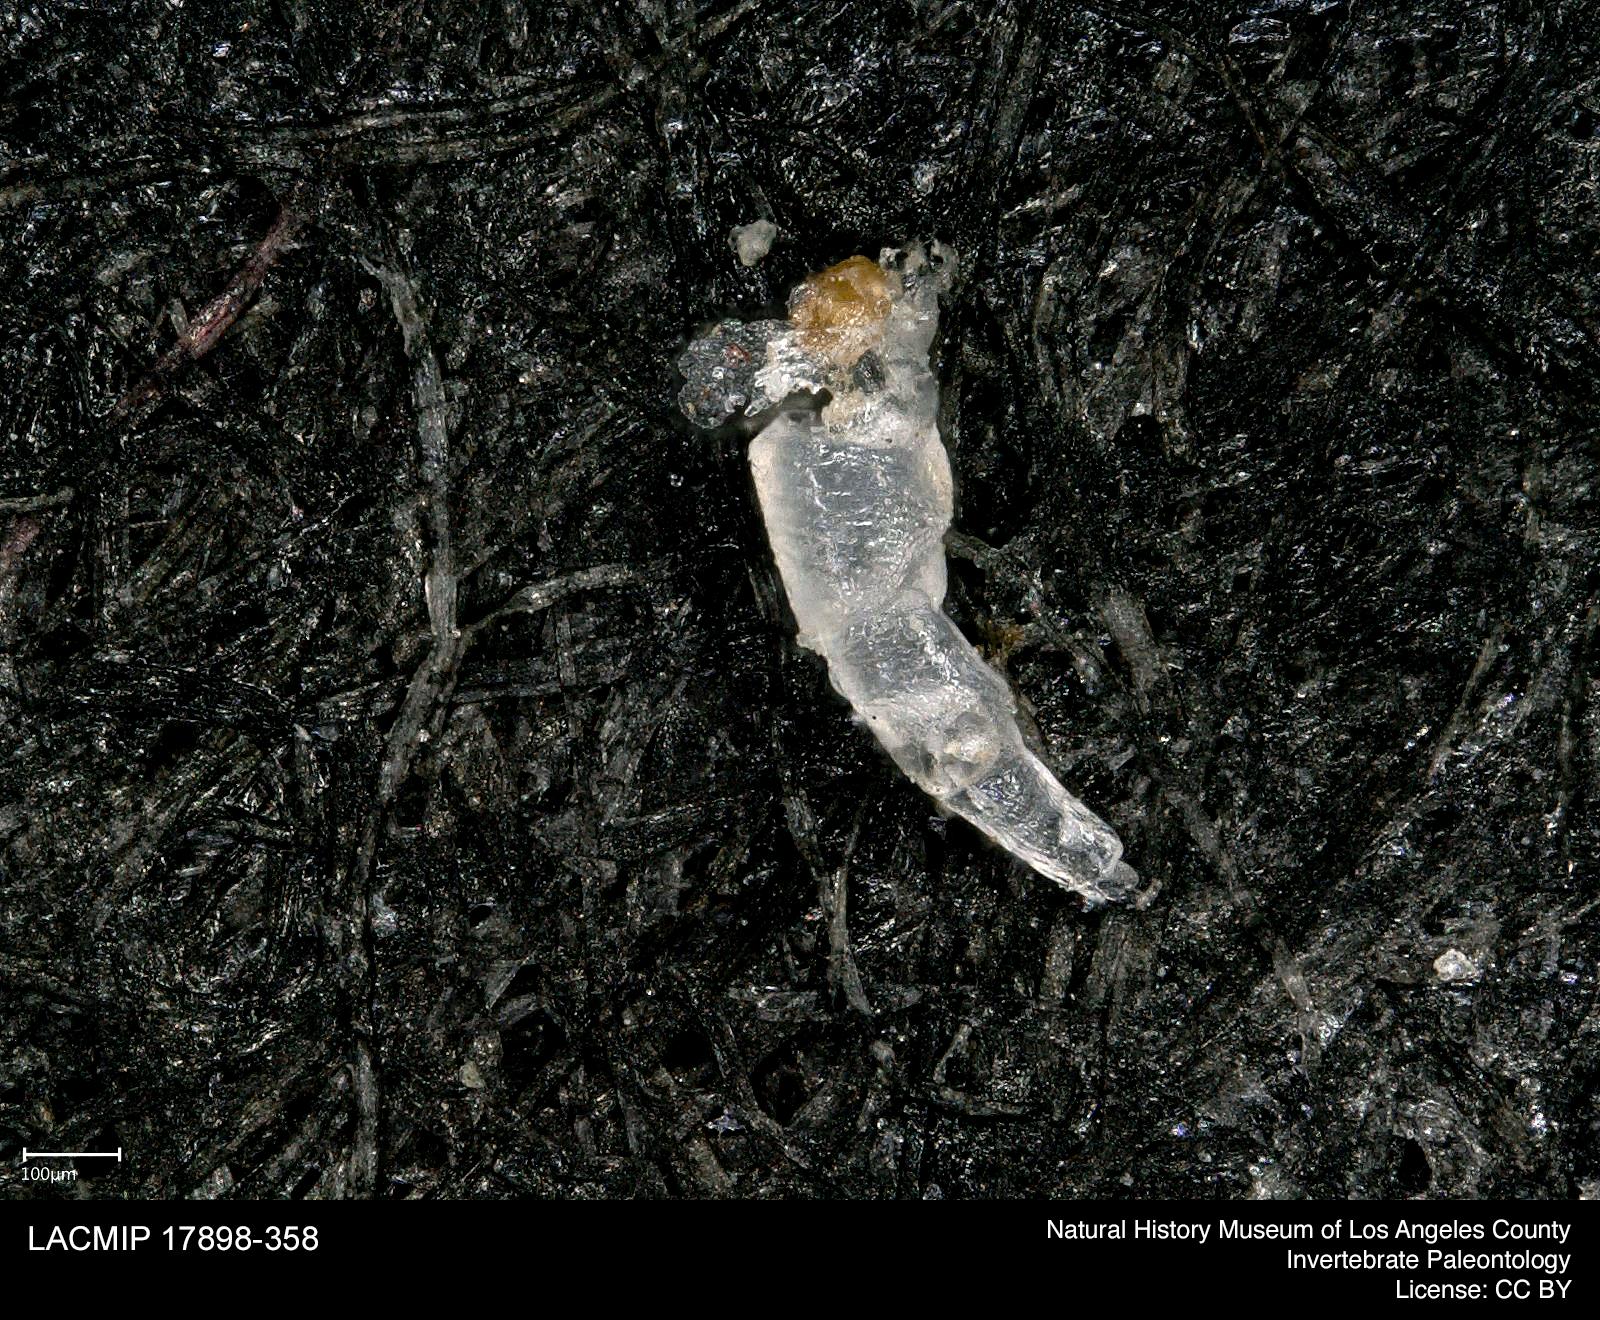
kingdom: Animalia
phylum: Arthropoda
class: Insecta
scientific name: Insecta
